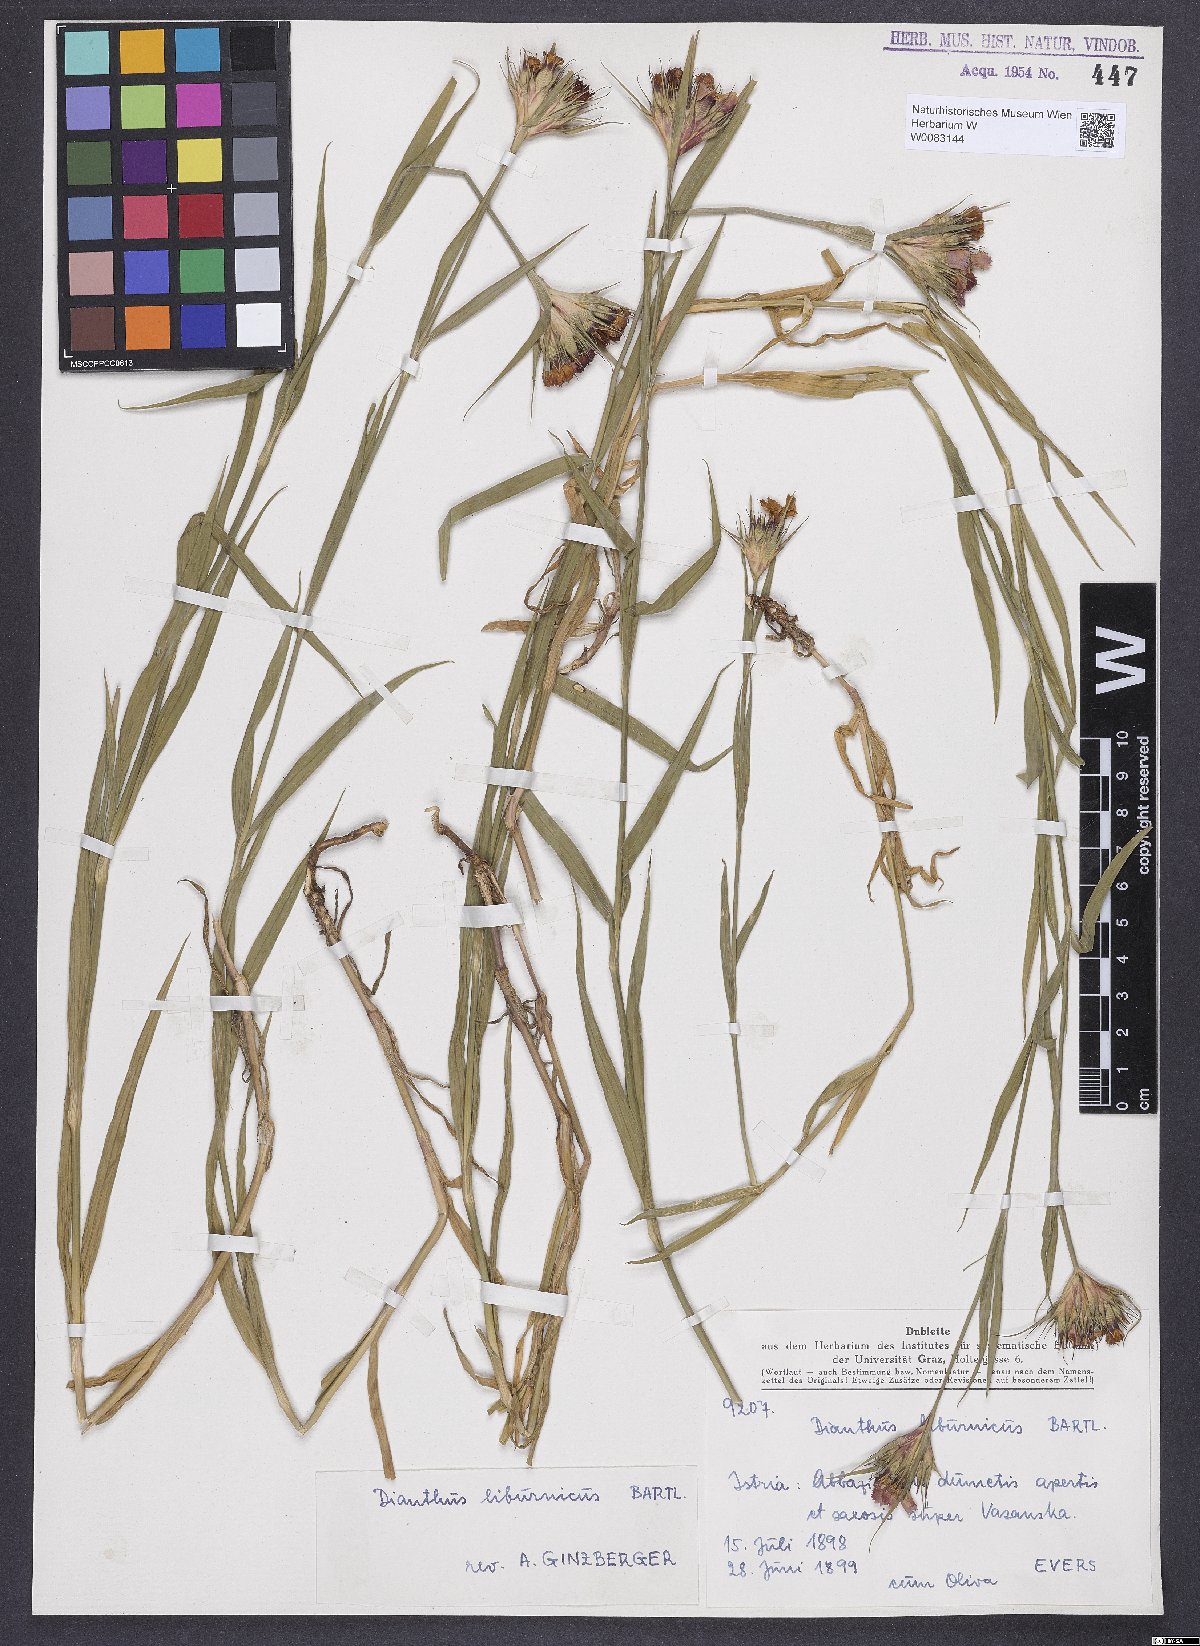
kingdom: Plantae
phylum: Tracheophyta
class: Magnoliopsida
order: Caryophyllales
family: Caryophyllaceae
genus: Dianthus
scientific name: Dianthus balbisii
